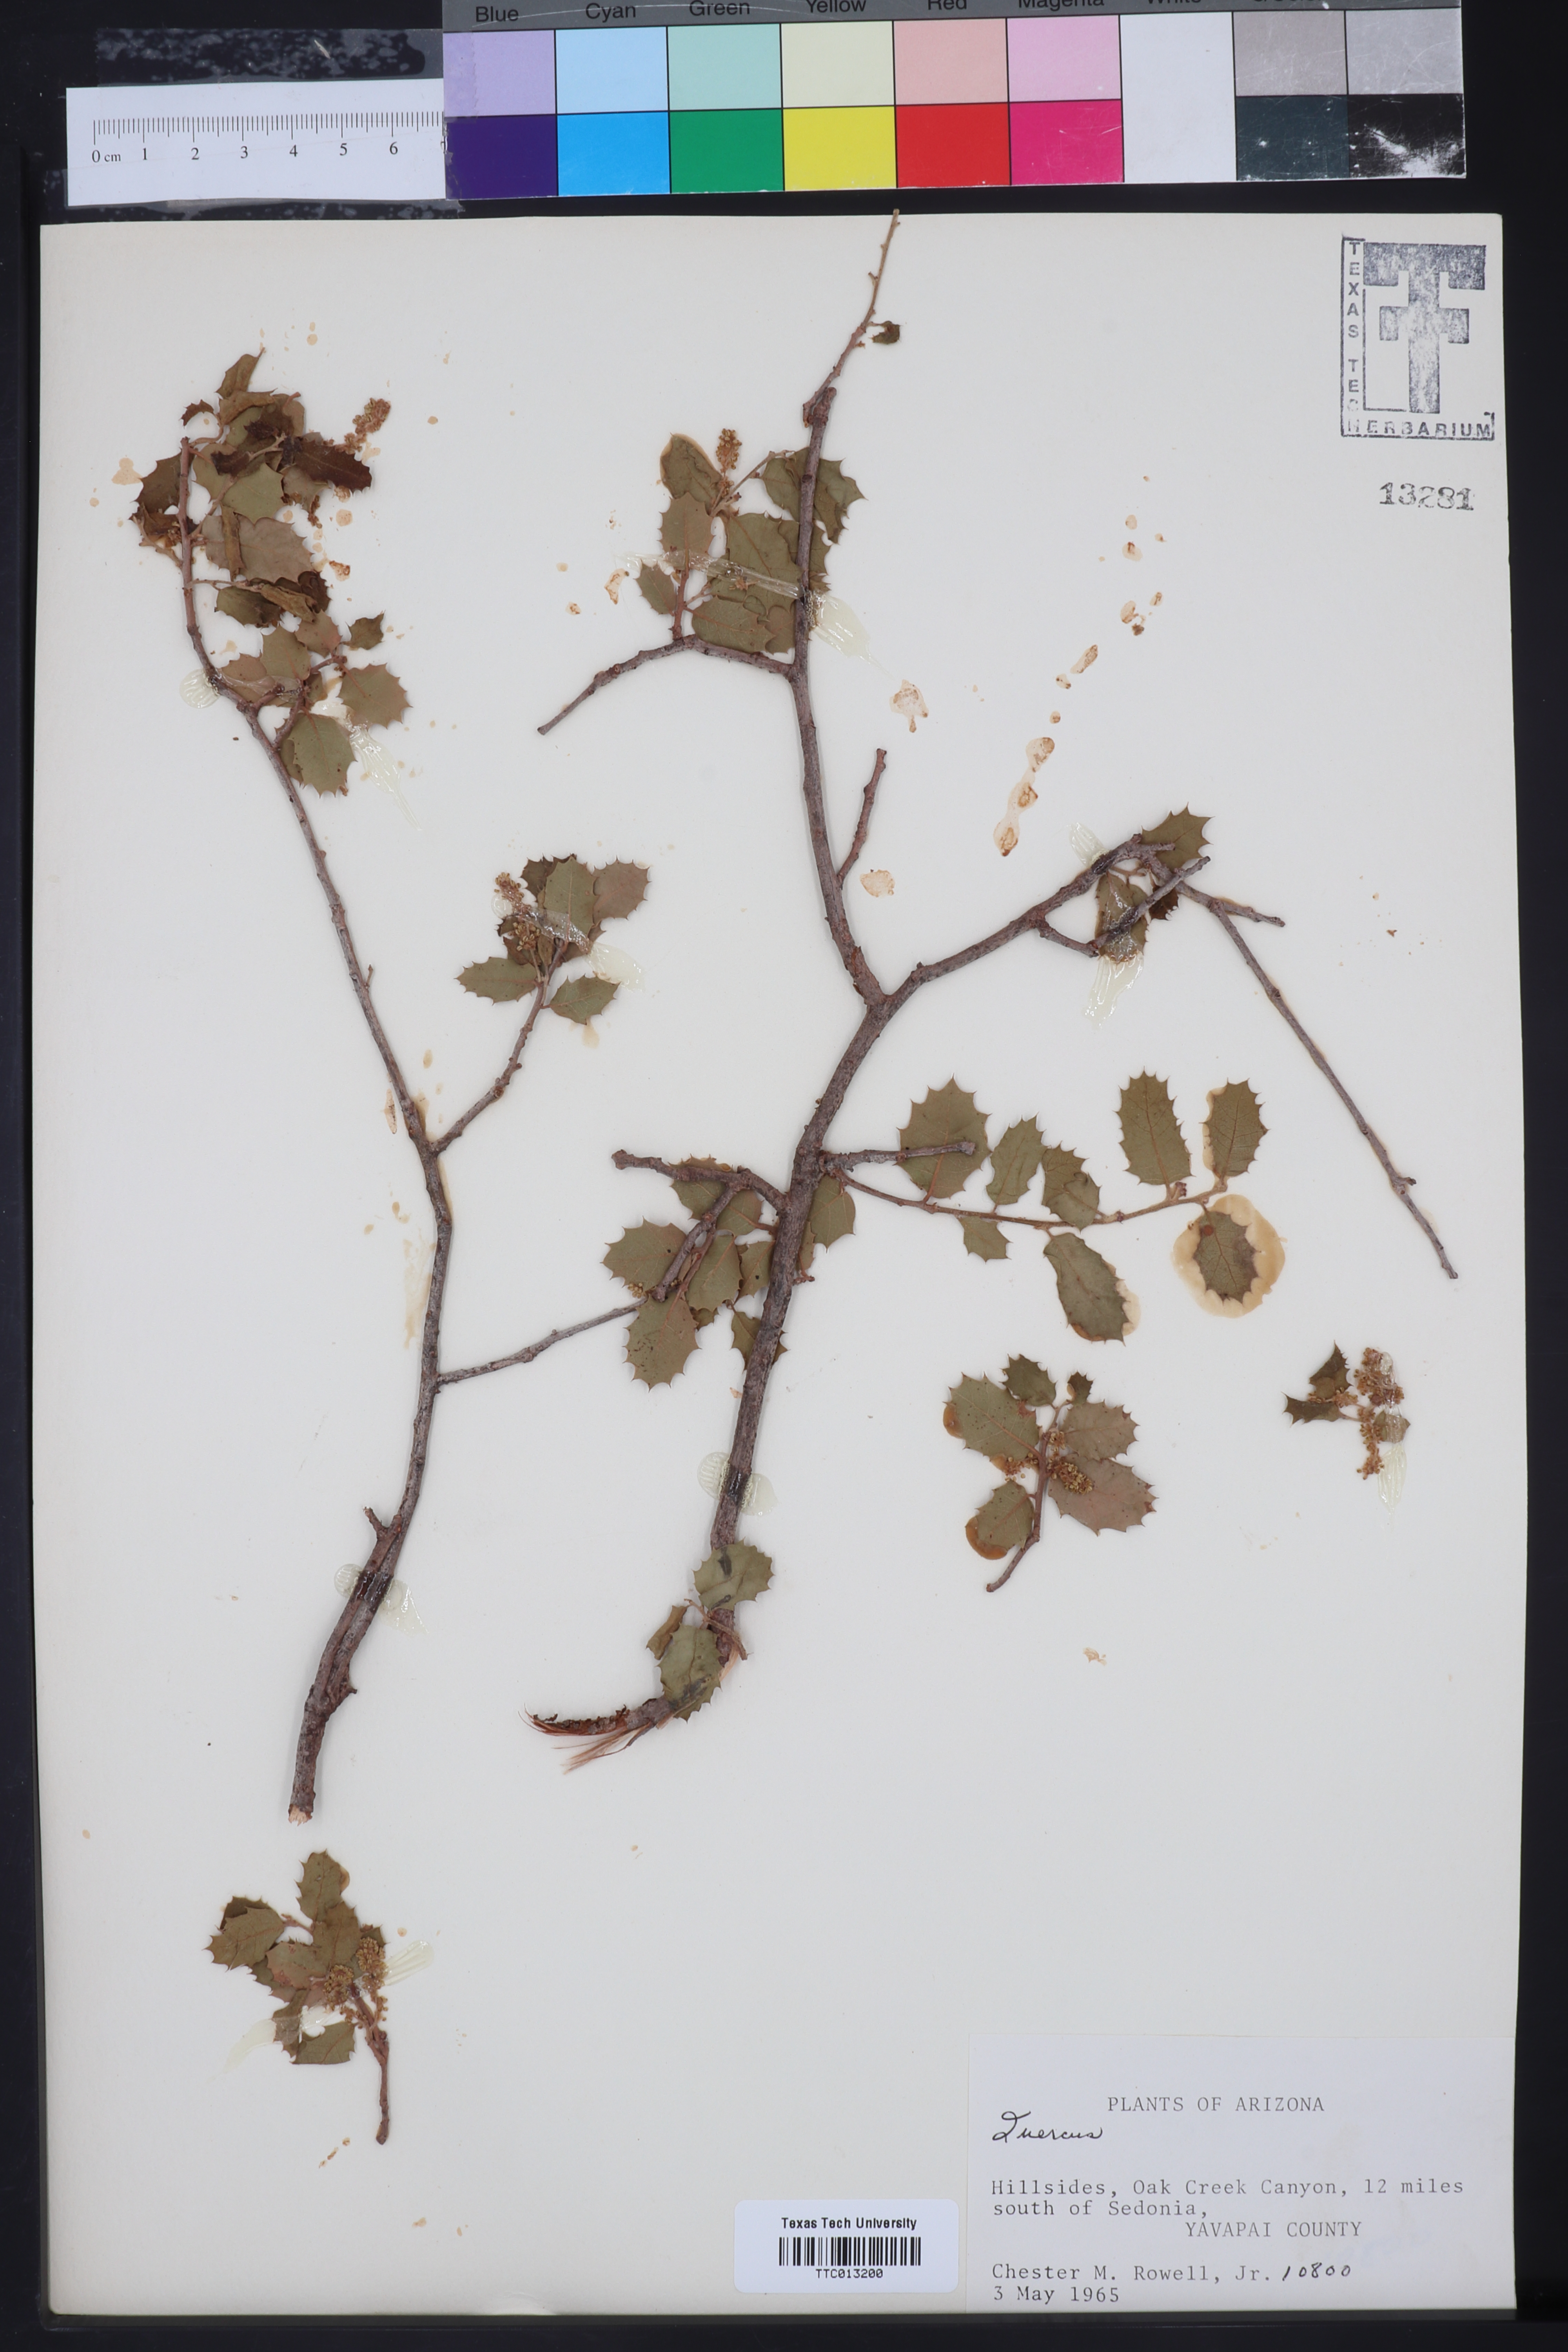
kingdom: Plantae
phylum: Tracheophyta
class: Magnoliopsida
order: Fagales
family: Fagaceae
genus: Quercus
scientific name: Quercus
